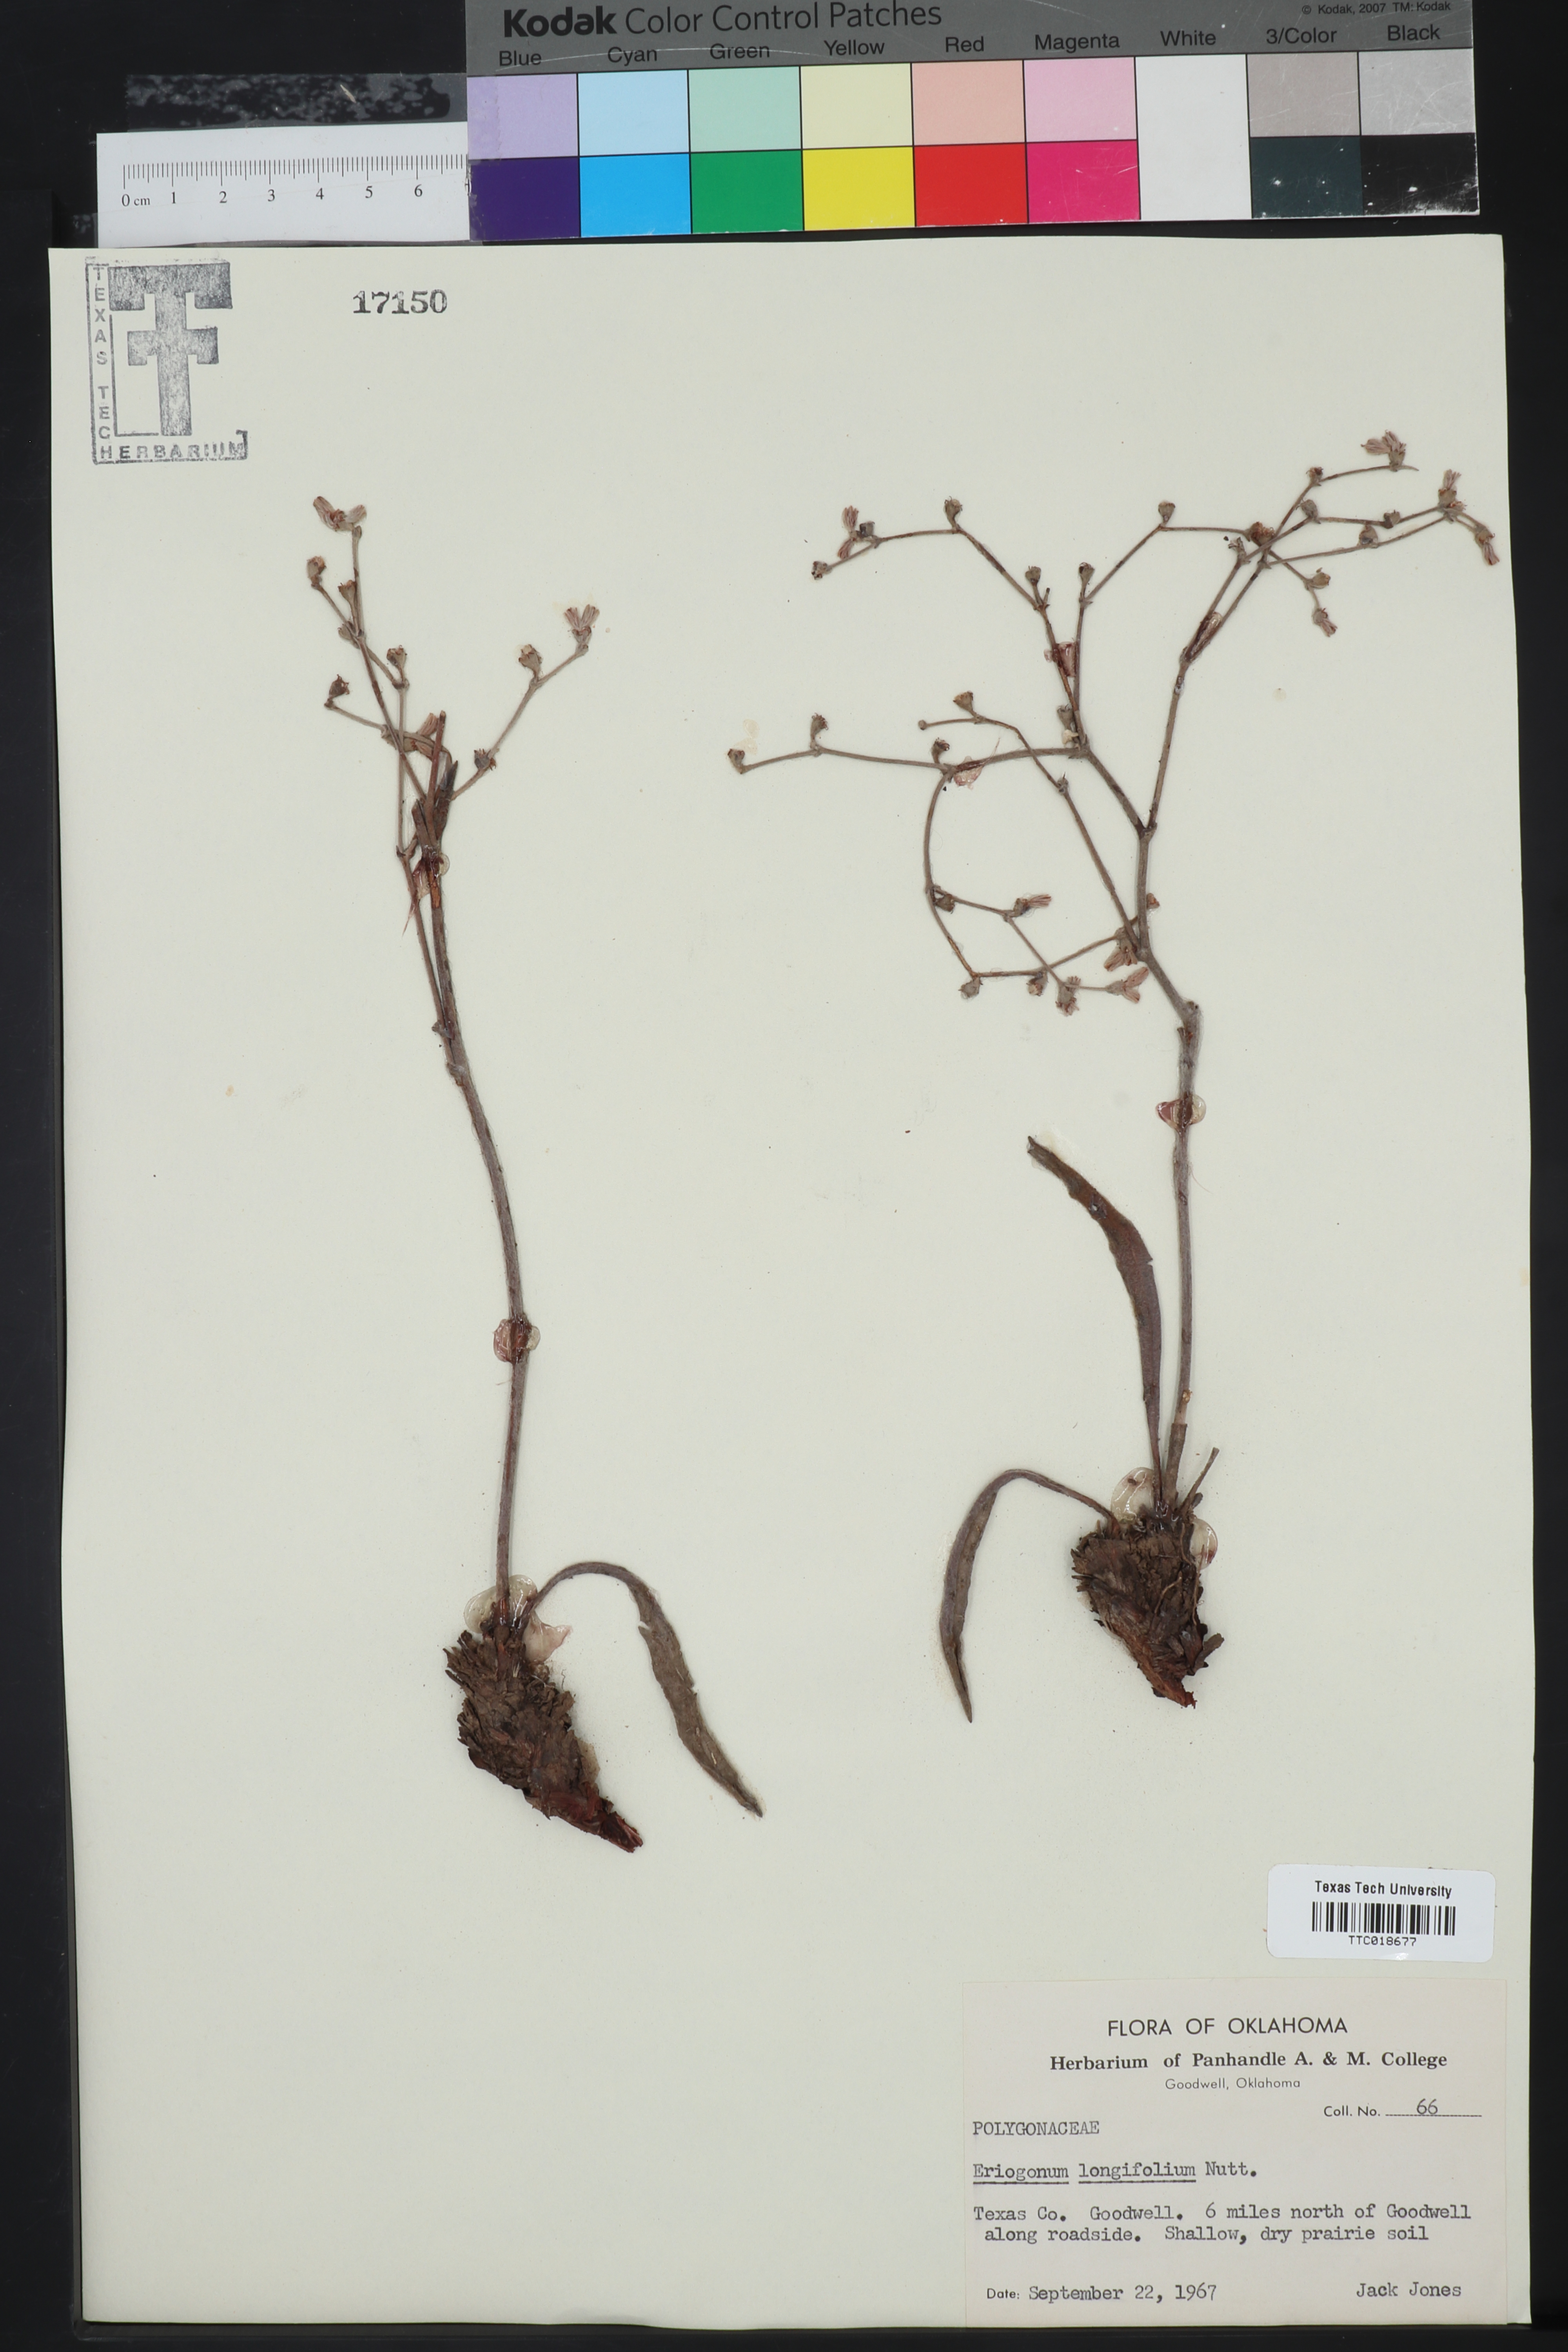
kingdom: Plantae
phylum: Tracheophyta
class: Magnoliopsida
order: Caryophyllales
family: Polygonaceae
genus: Eriogonum
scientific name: Eriogonum longifolium
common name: Longleaf wild buckwheat
